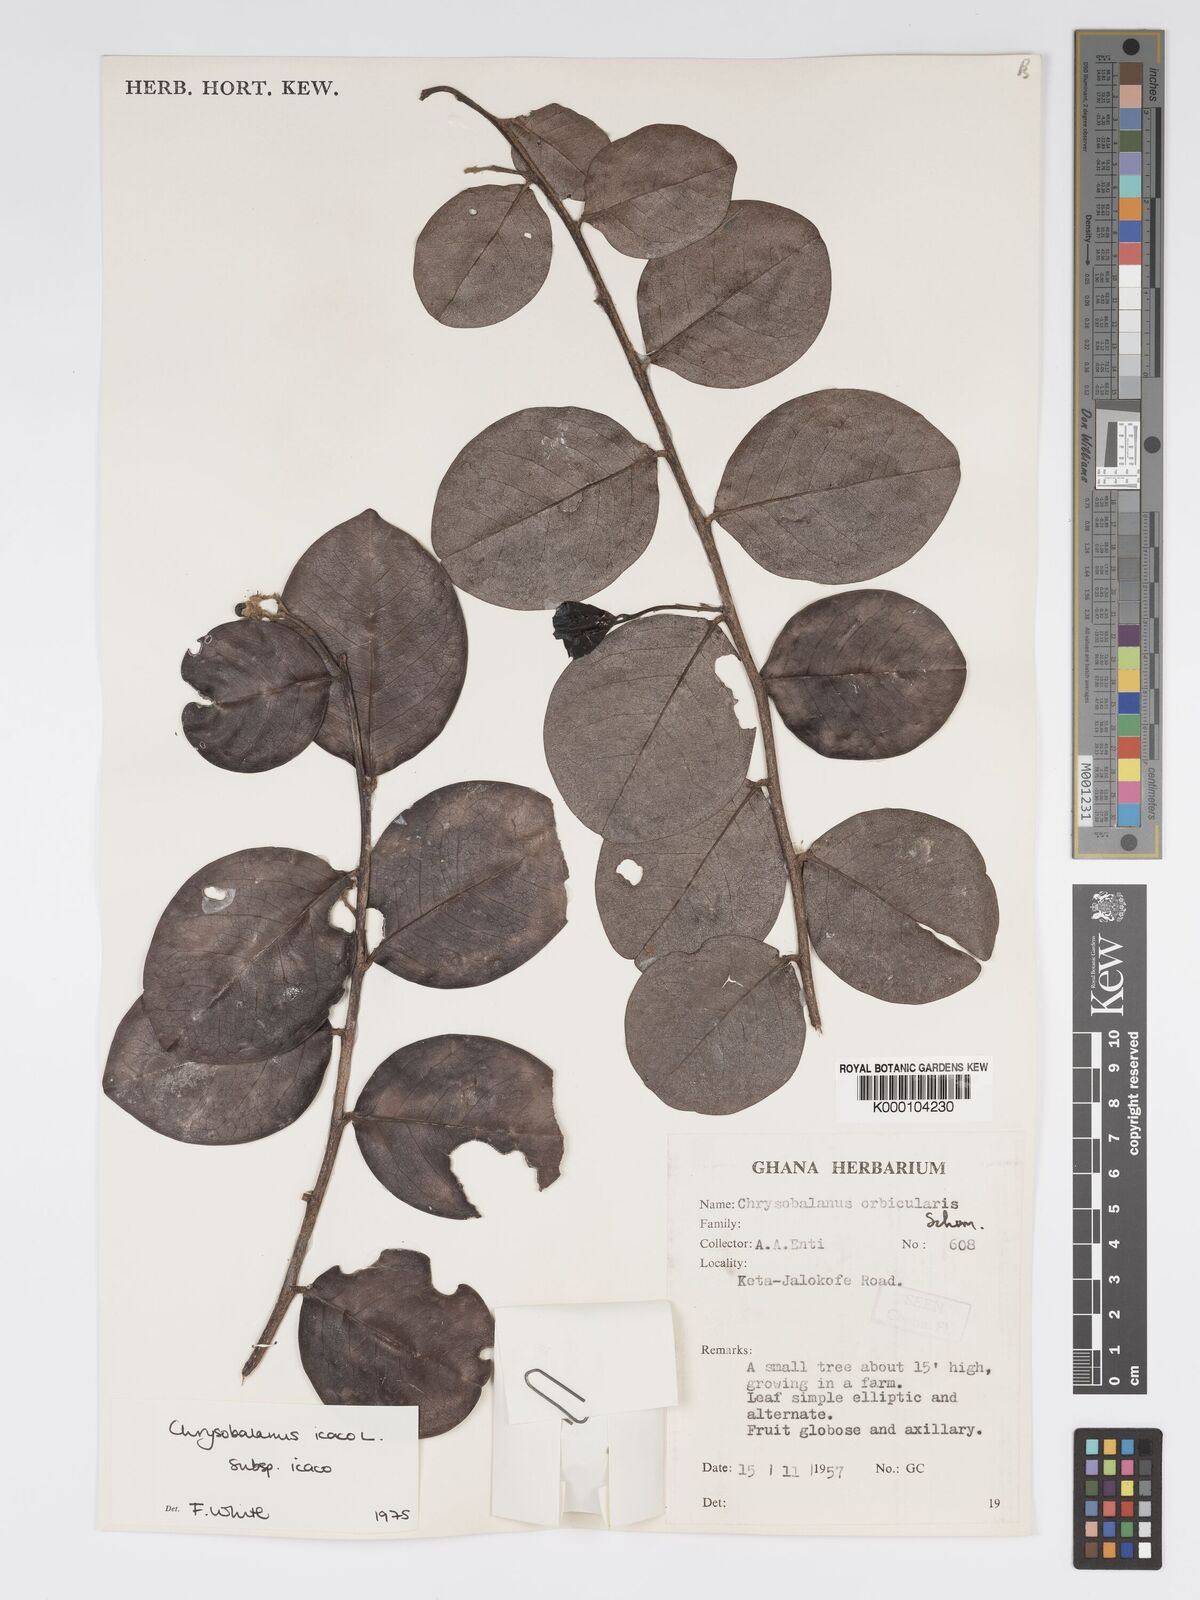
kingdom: Plantae
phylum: Tracheophyta
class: Magnoliopsida
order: Malpighiales
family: Chrysobalanaceae
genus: Chrysobalanus
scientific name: Chrysobalanus icaco
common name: Coco plum
